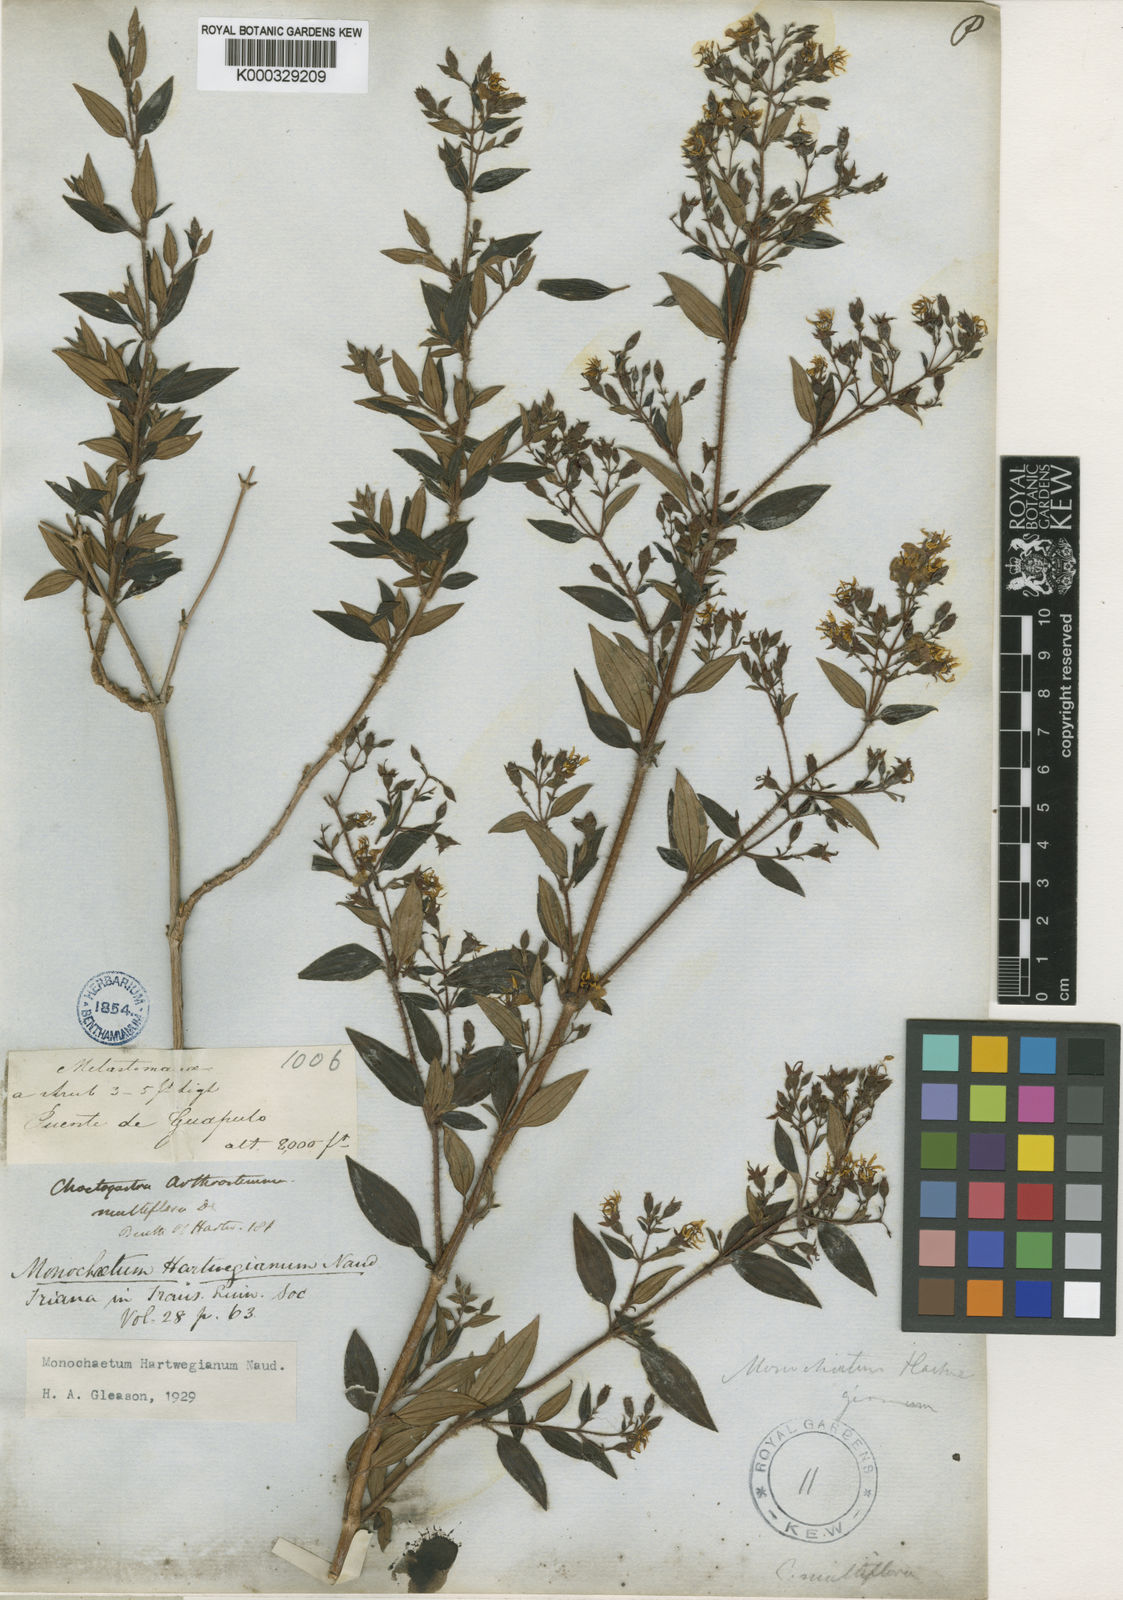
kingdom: Plantae
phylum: Tracheophyta
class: Magnoliopsida
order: Myrtales
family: Melastomataceae
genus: Monochaetum
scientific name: Monochaetum hartwegianum
